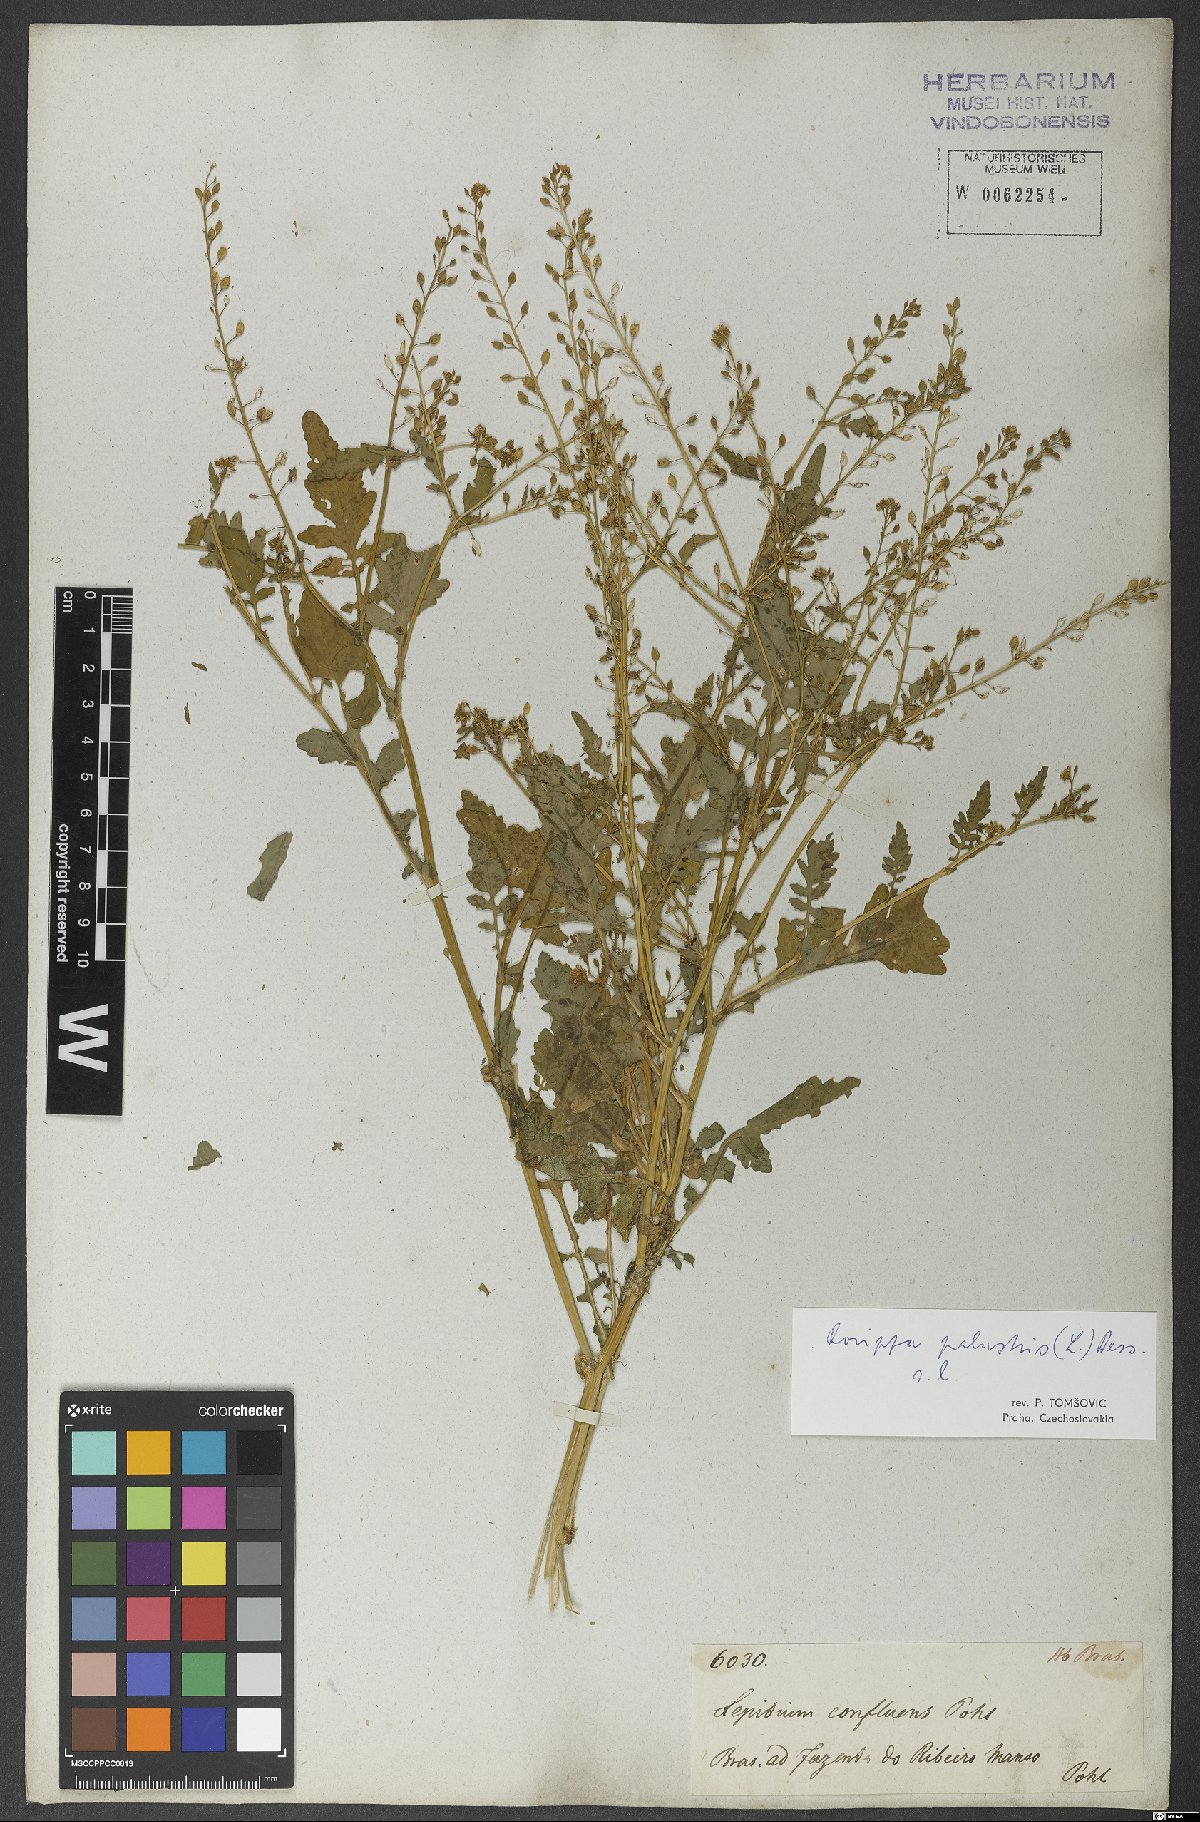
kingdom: Plantae
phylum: Tracheophyta
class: Magnoliopsida
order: Brassicales
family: Brassicaceae
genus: Rorippa
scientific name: Rorippa palustris
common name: Marsh yellow-cress
